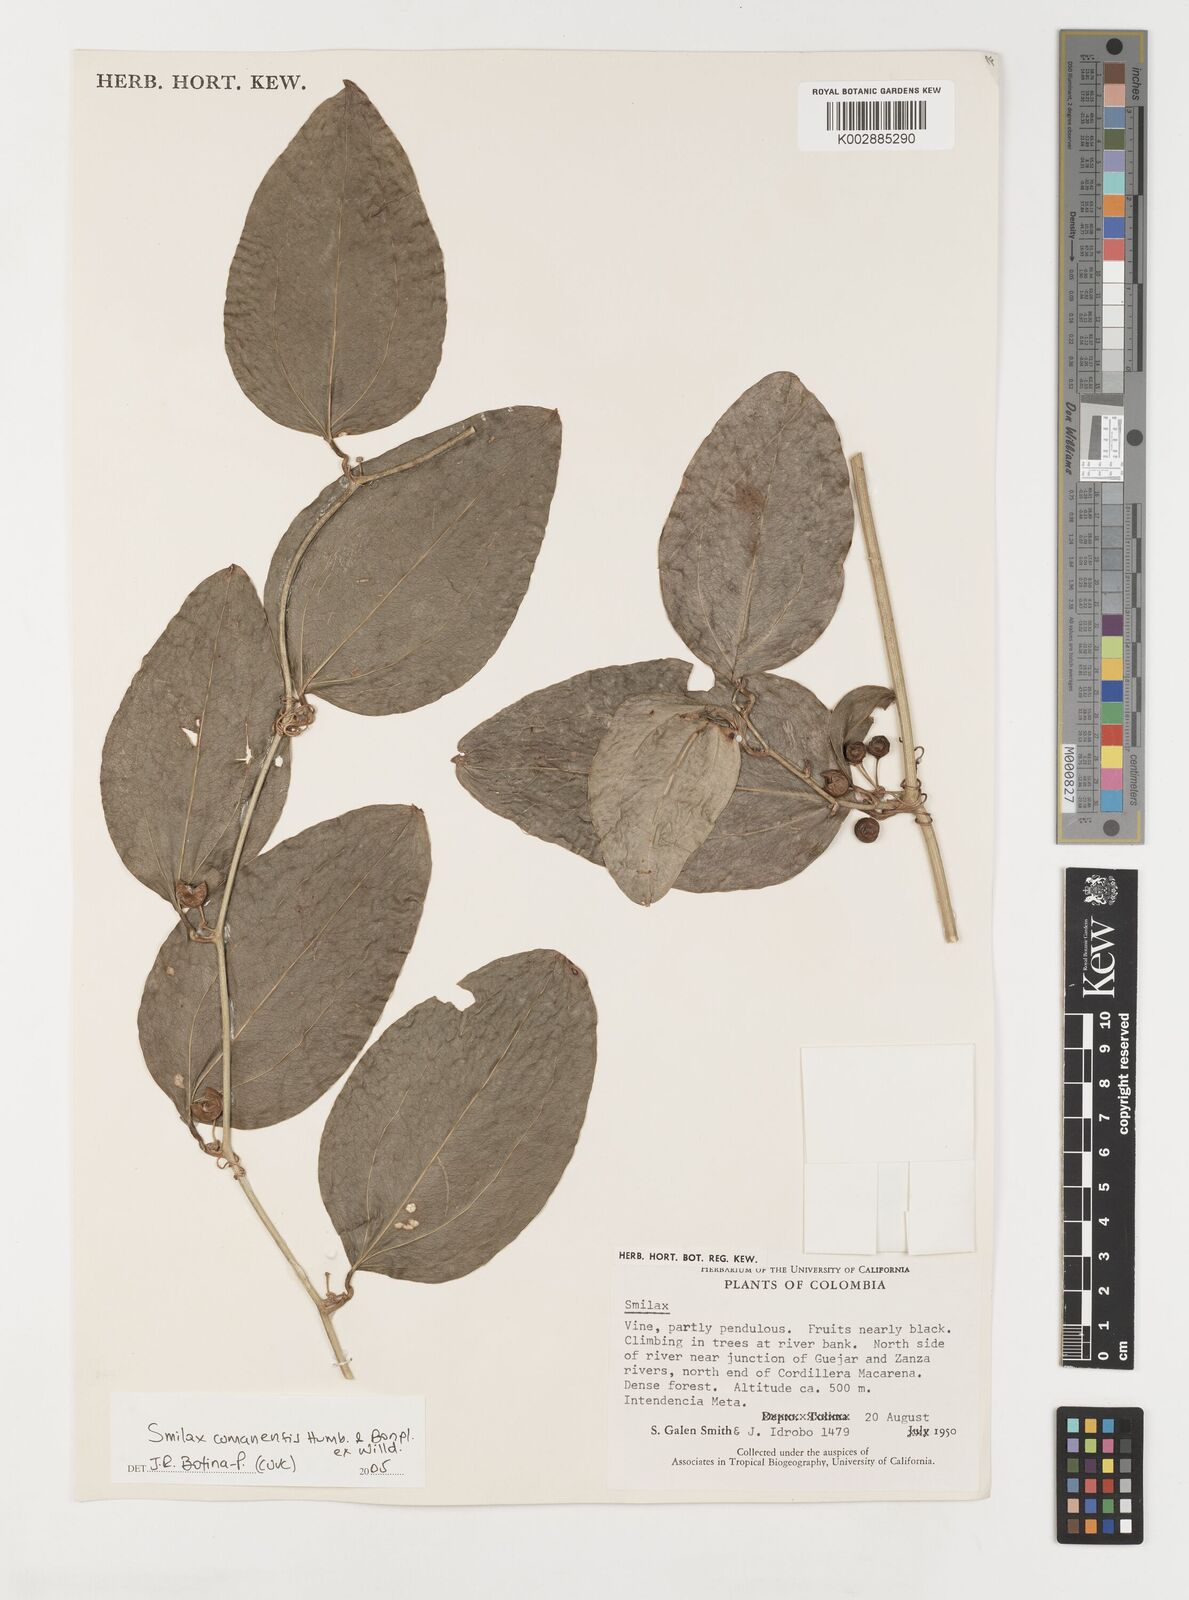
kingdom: Plantae
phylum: Tracheophyta
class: Liliopsida
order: Liliales
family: Smilacaceae
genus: Smilax
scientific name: Smilax oblongata
